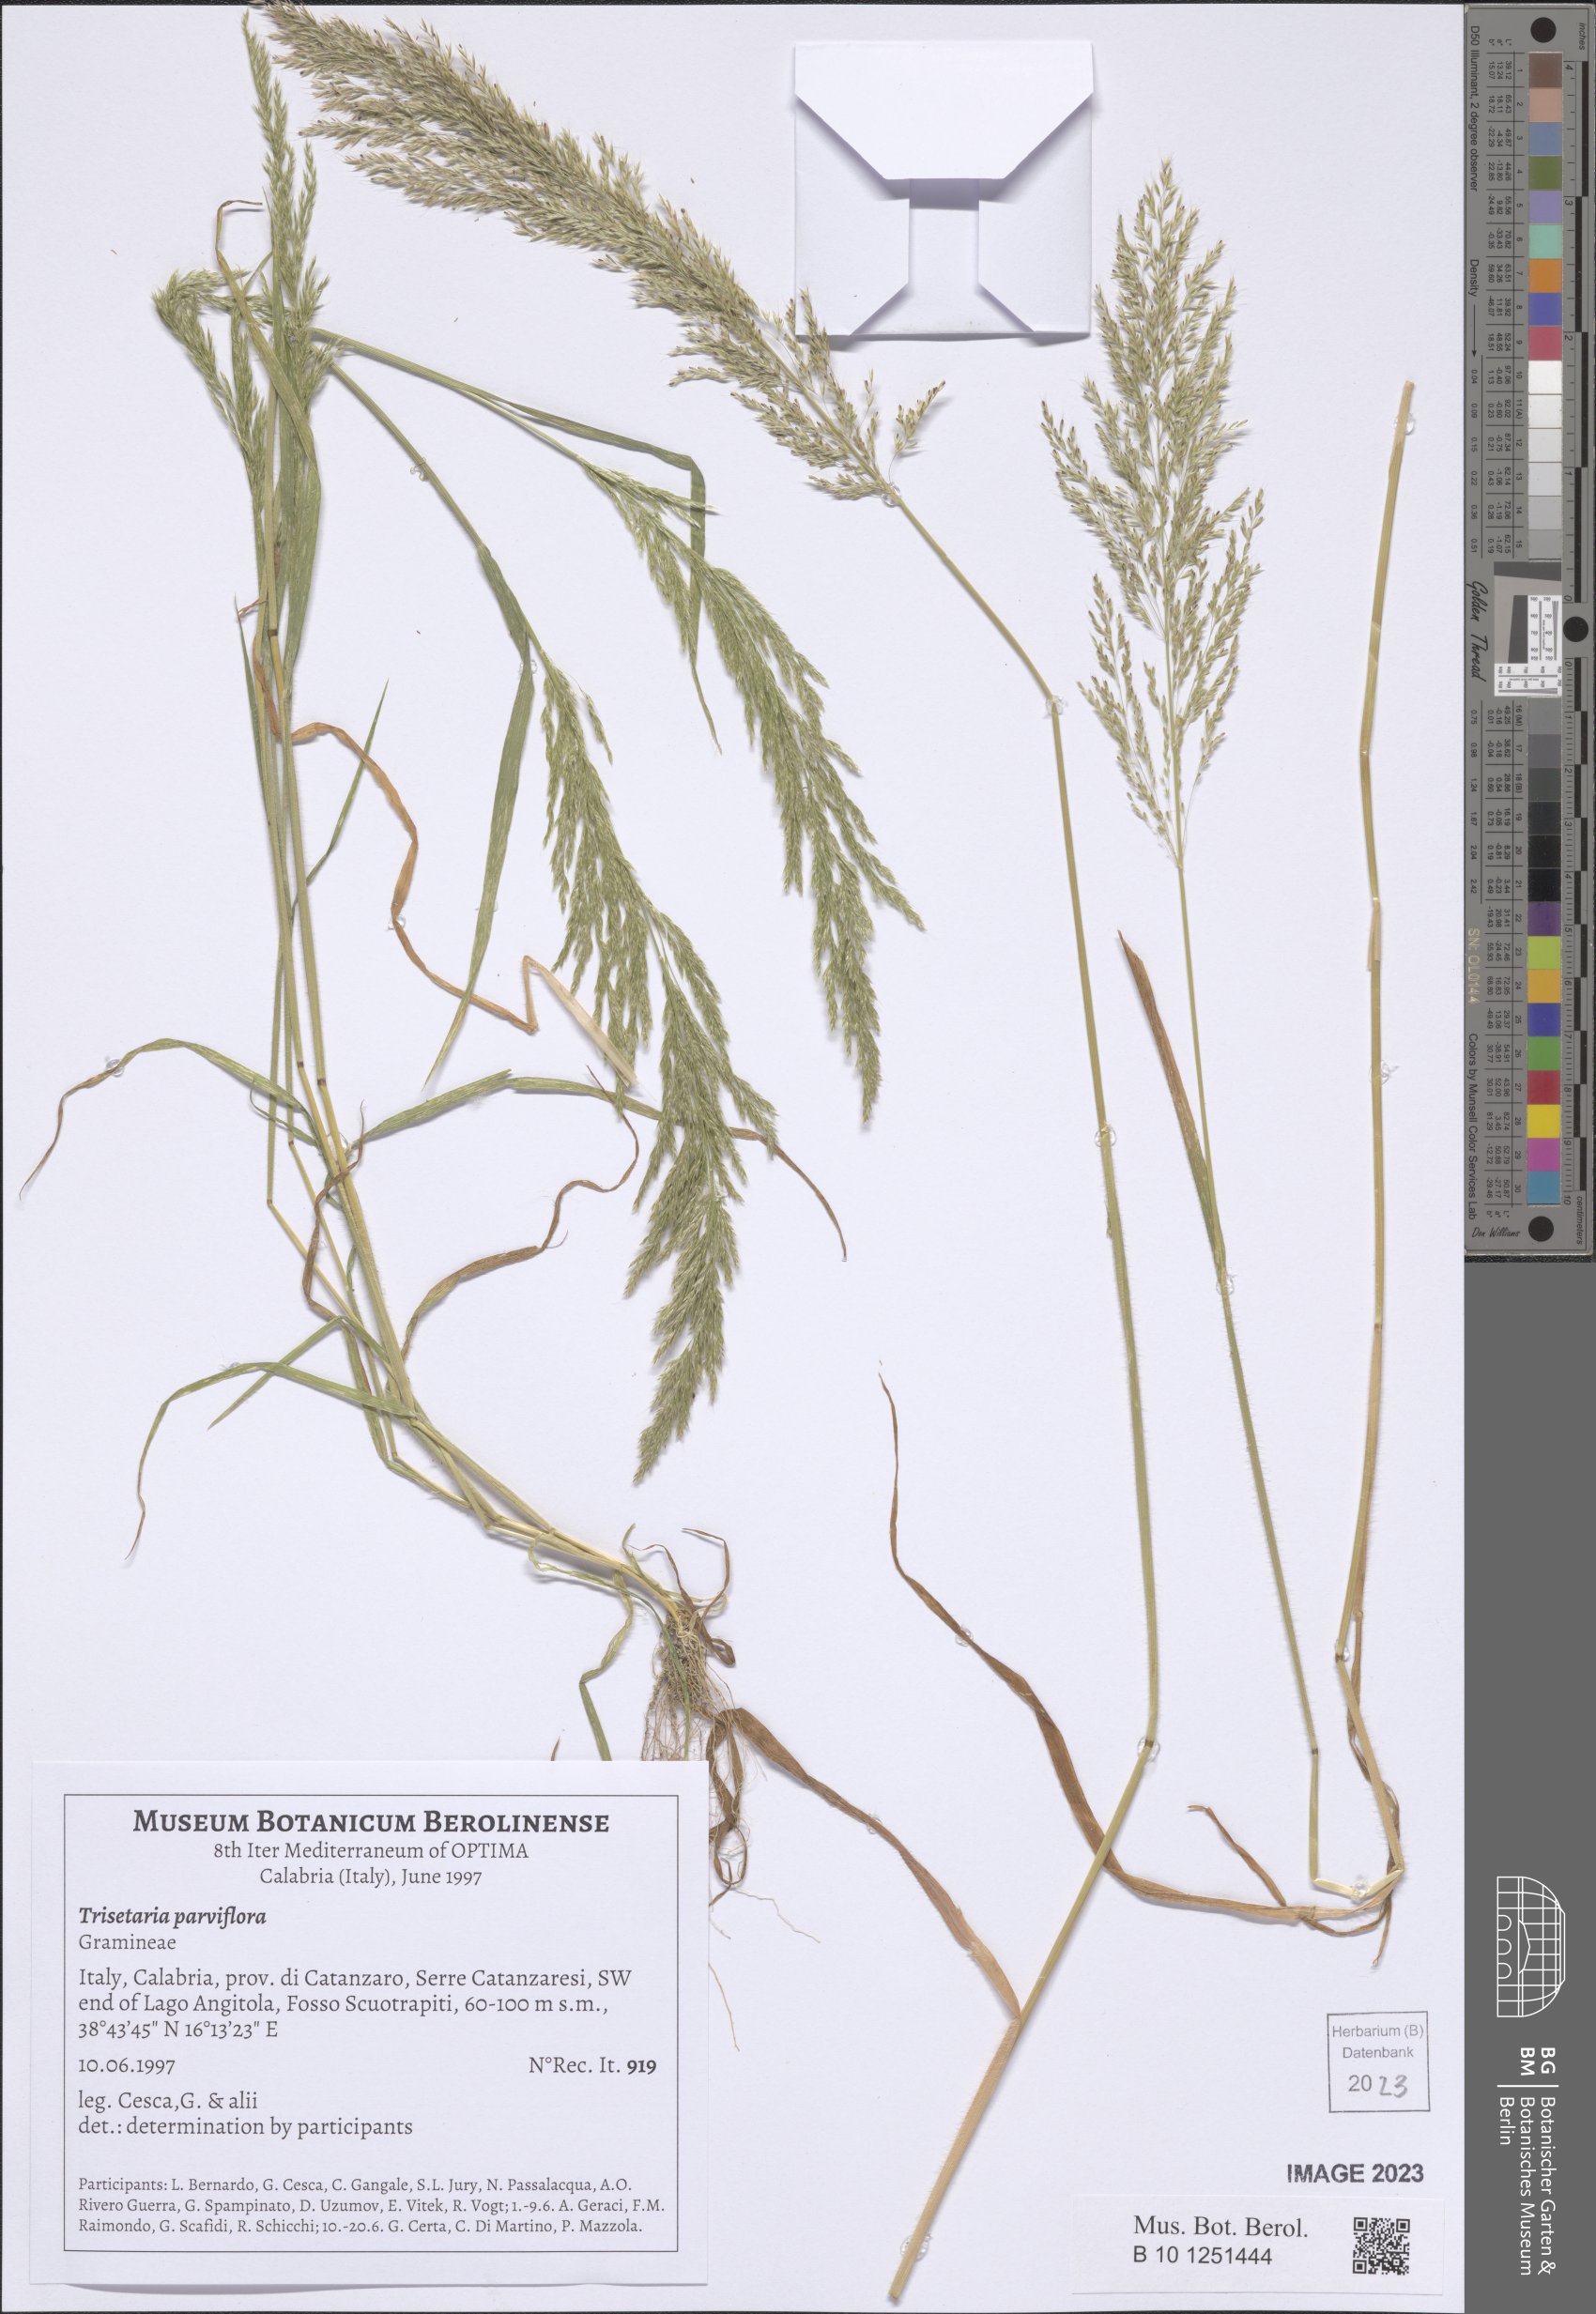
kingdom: Plantae
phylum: Tracheophyta
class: Liliopsida
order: Poales
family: Poaceae
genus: Trisetaria
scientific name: Trisetaria parviflora
